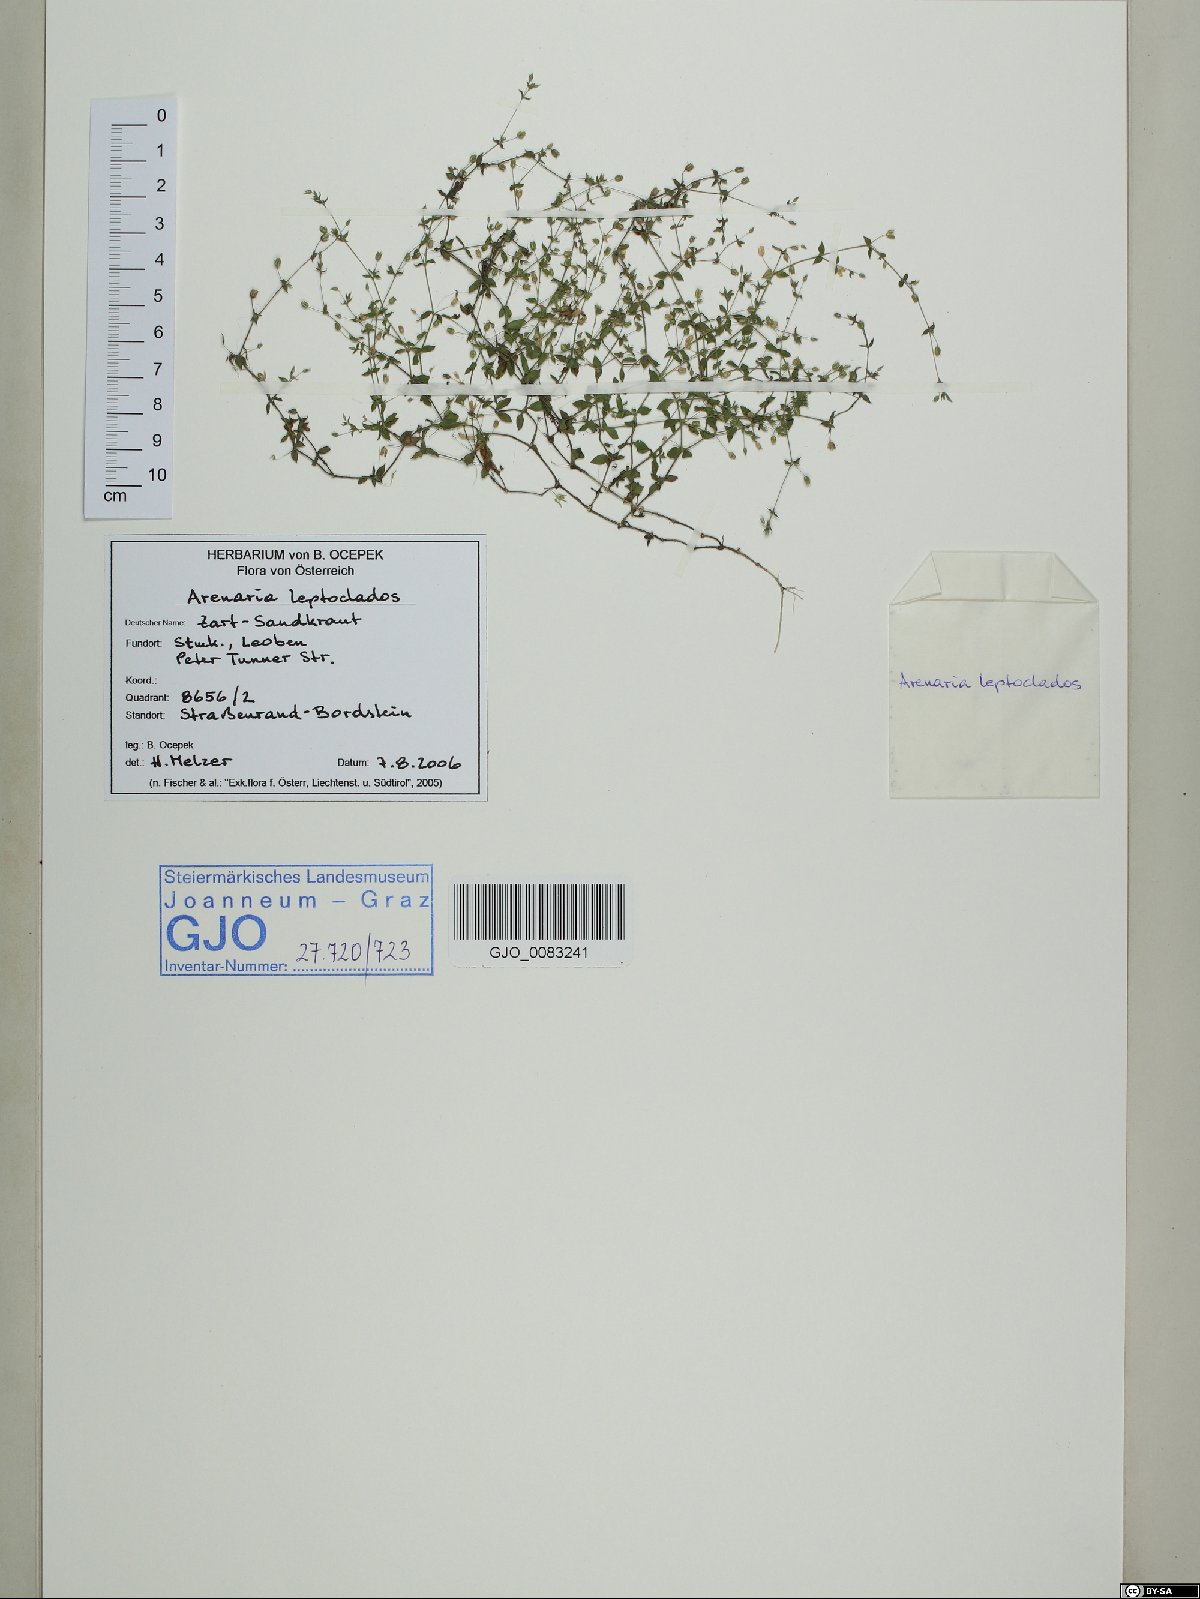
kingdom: Plantae
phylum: Tracheophyta
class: Magnoliopsida
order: Caryophyllales
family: Caryophyllaceae
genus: Arenaria
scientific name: Arenaria leptoclados
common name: Thyme-leaved sandwort
